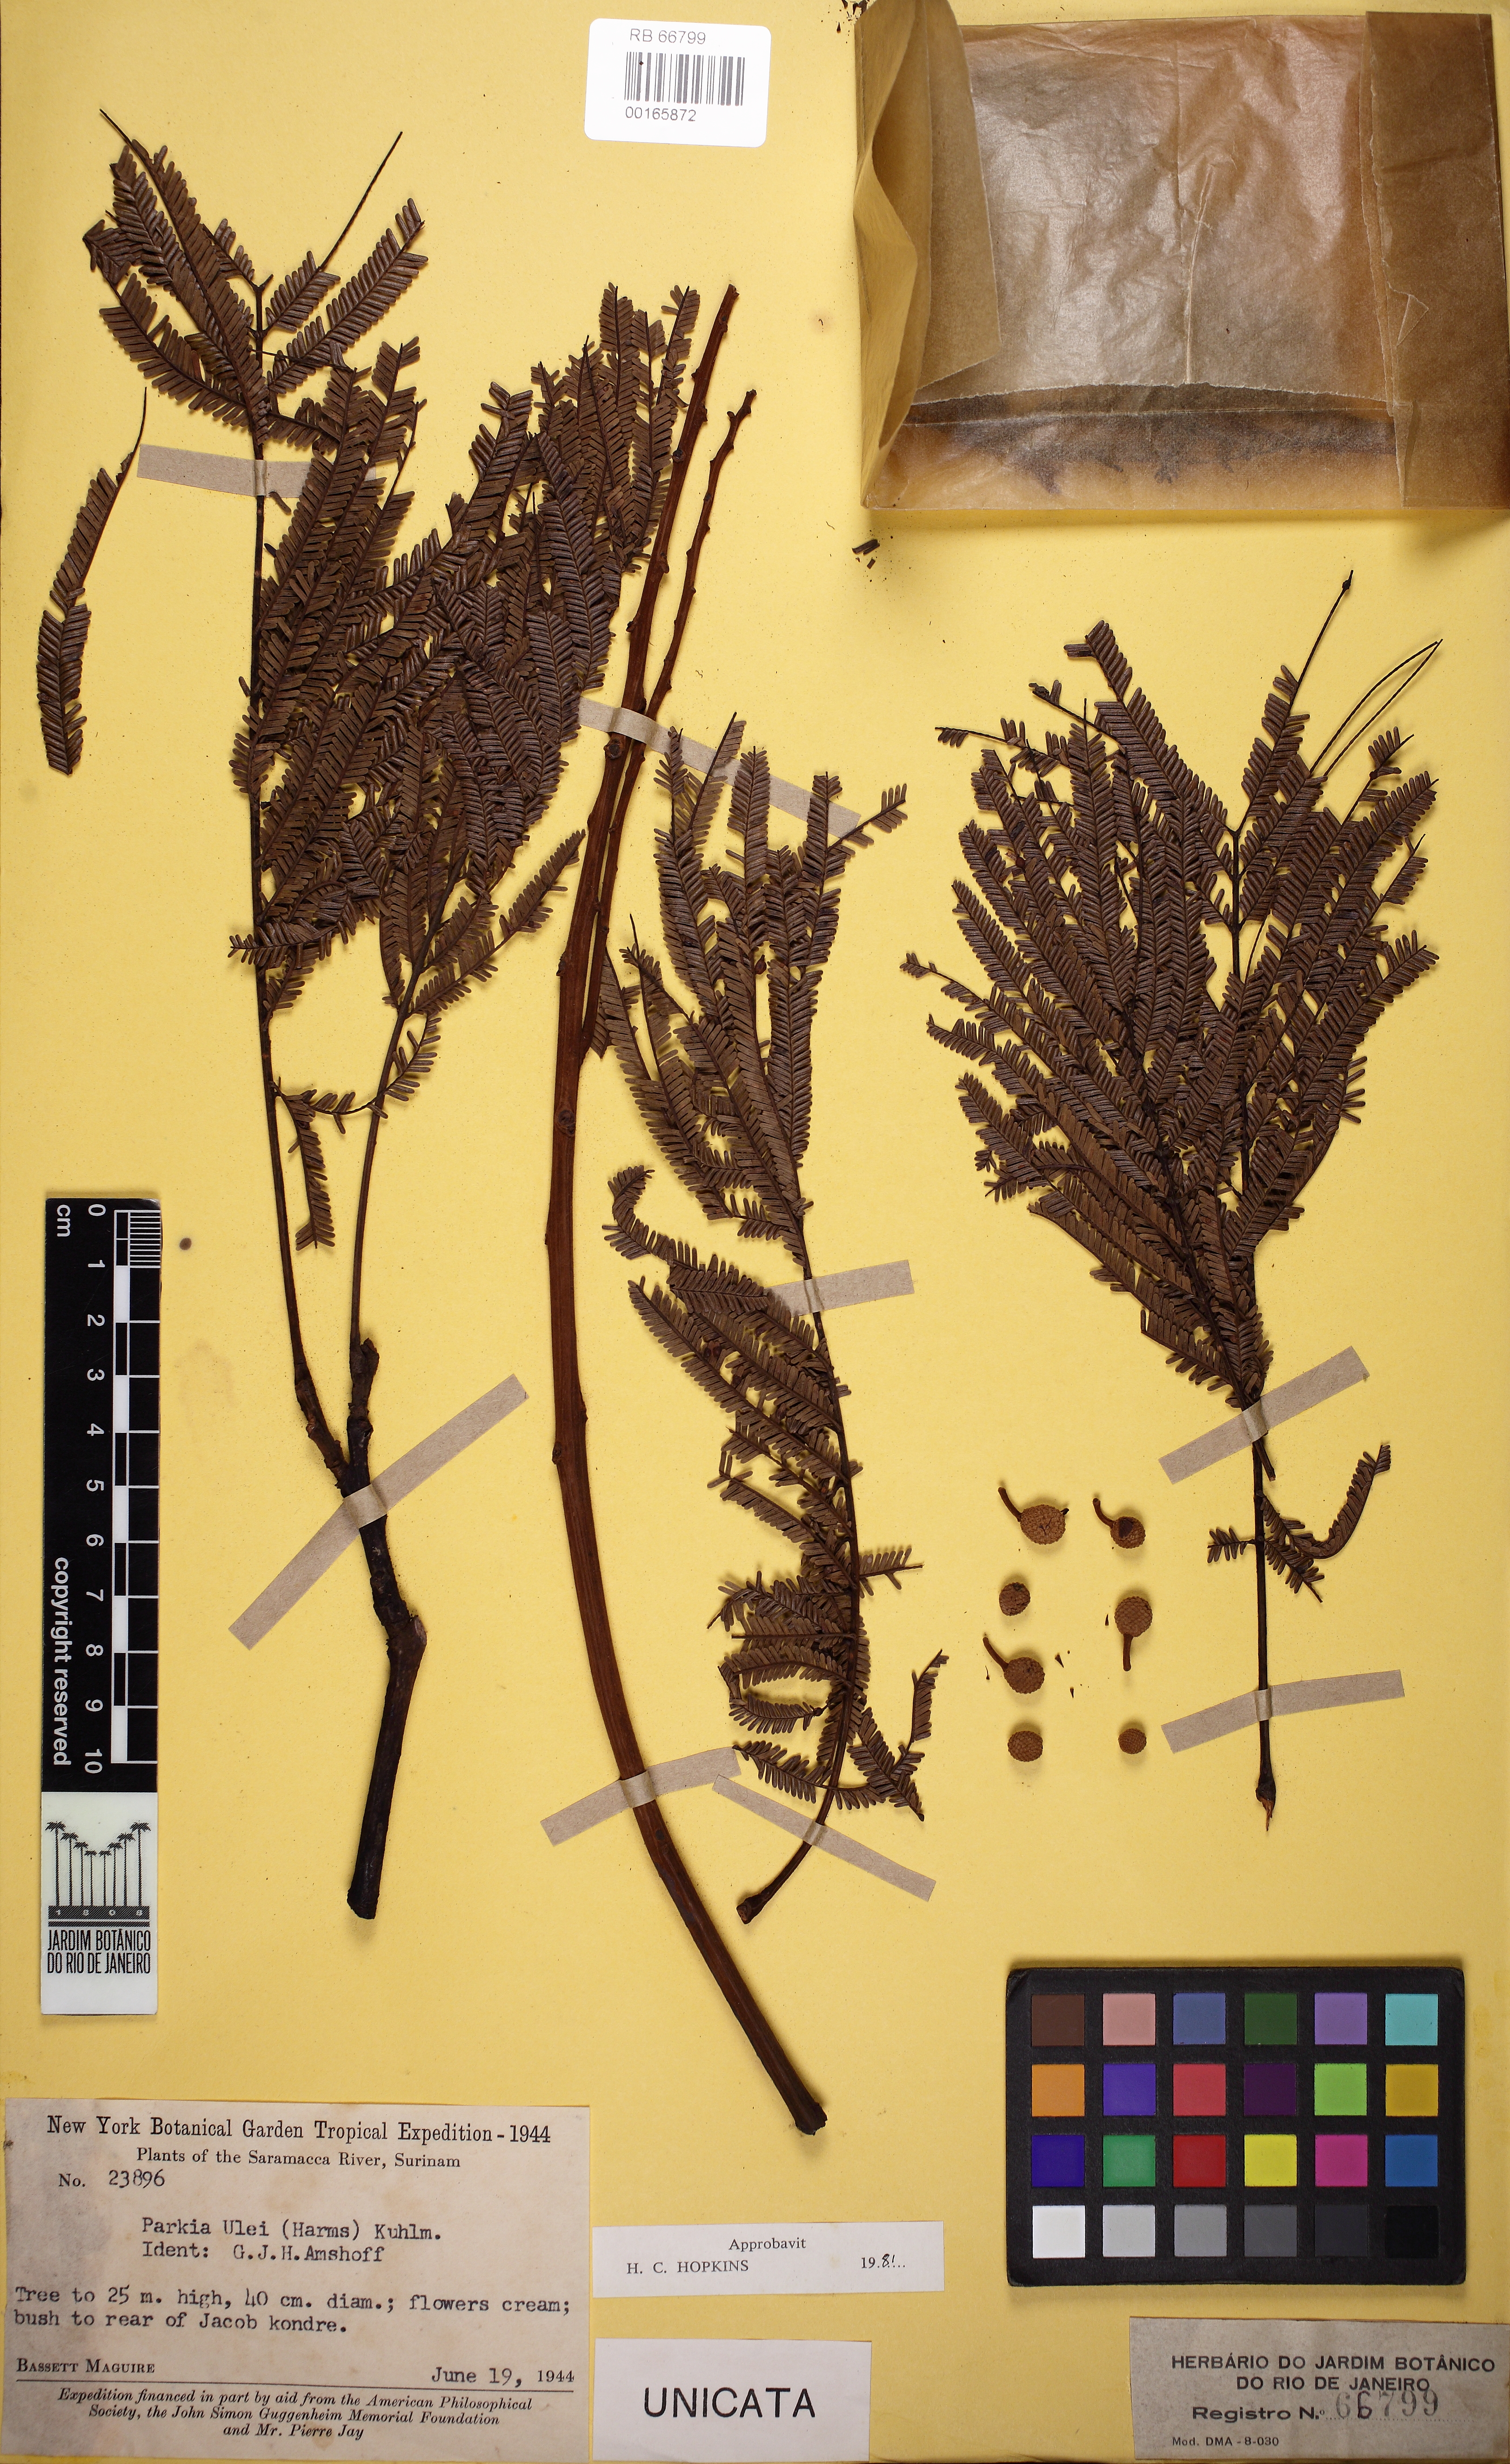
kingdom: Plantae
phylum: Tracheophyta
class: Magnoliopsida
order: Fabales
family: Fabaceae
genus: Parkia
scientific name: Parkia ulei
